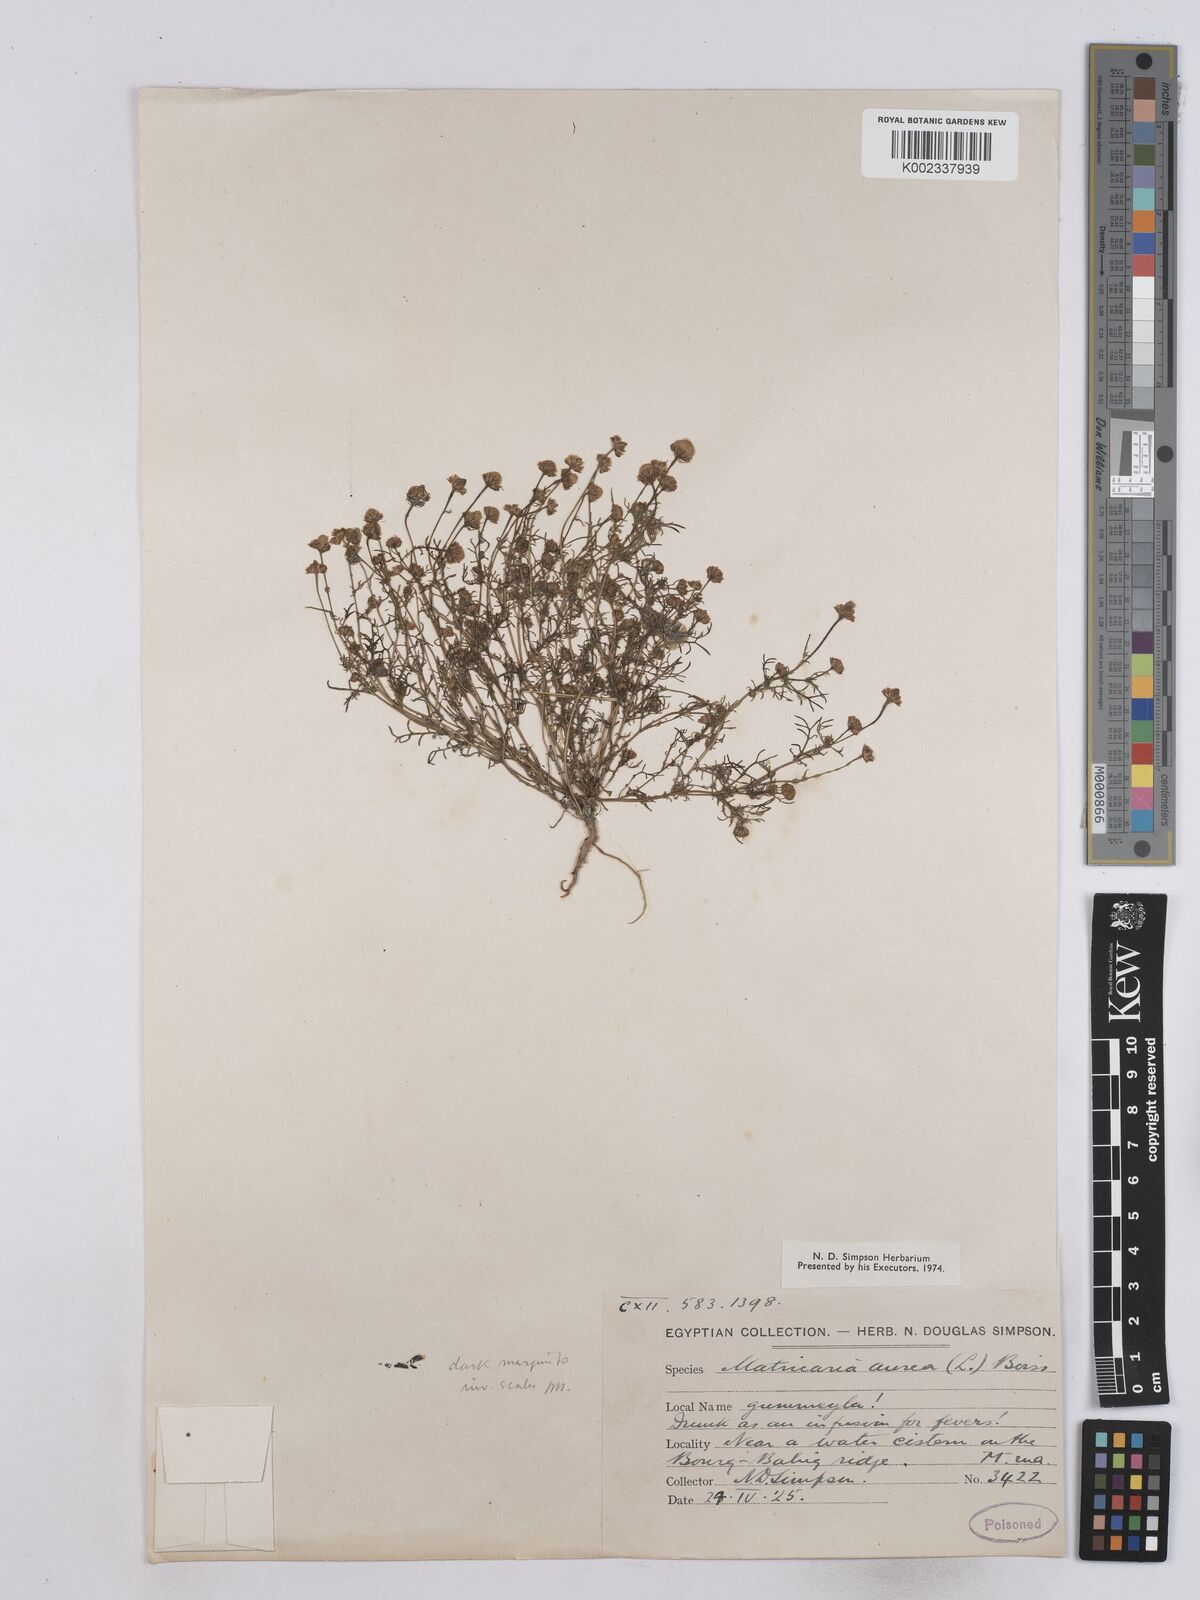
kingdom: Plantae
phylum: Tracheophyta
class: Magnoliopsida
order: Asterales
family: Asteraceae
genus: Matricaria
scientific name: Matricaria aurea
